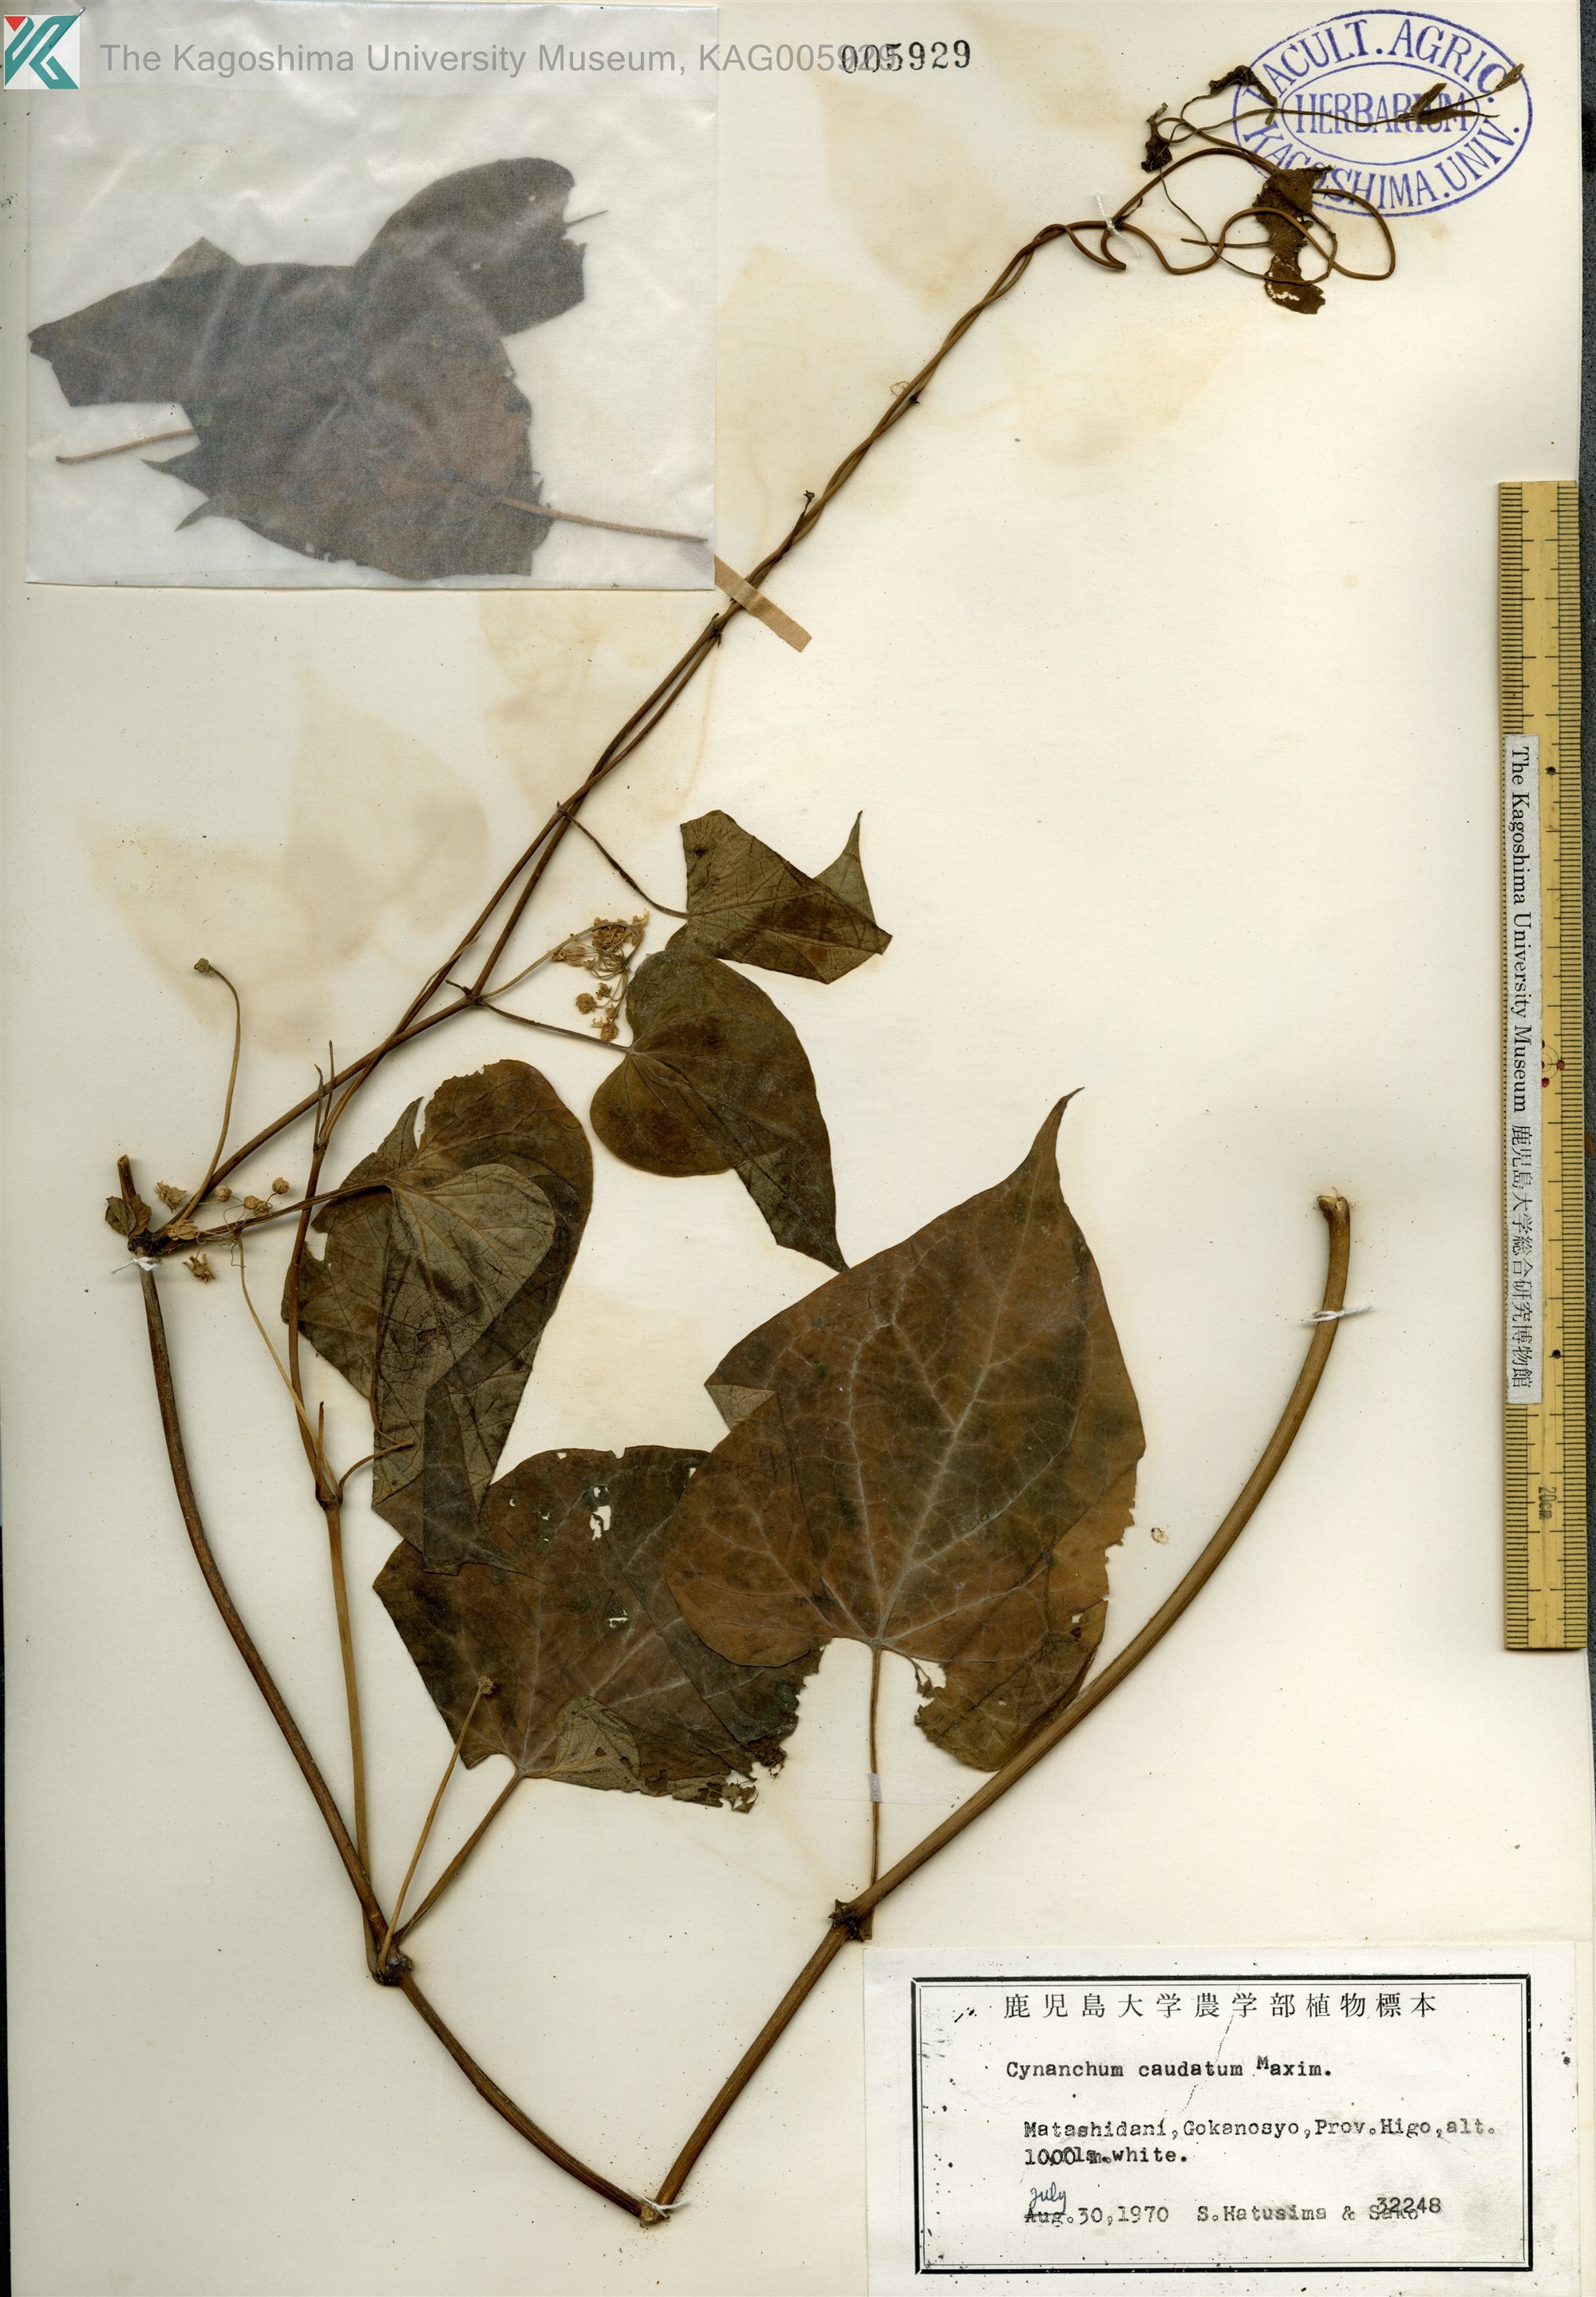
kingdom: Plantae
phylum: Tracheophyta
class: Magnoliopsida
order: Gentianales
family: Apocynaceae
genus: Orthosia
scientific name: Orthosia virgata
